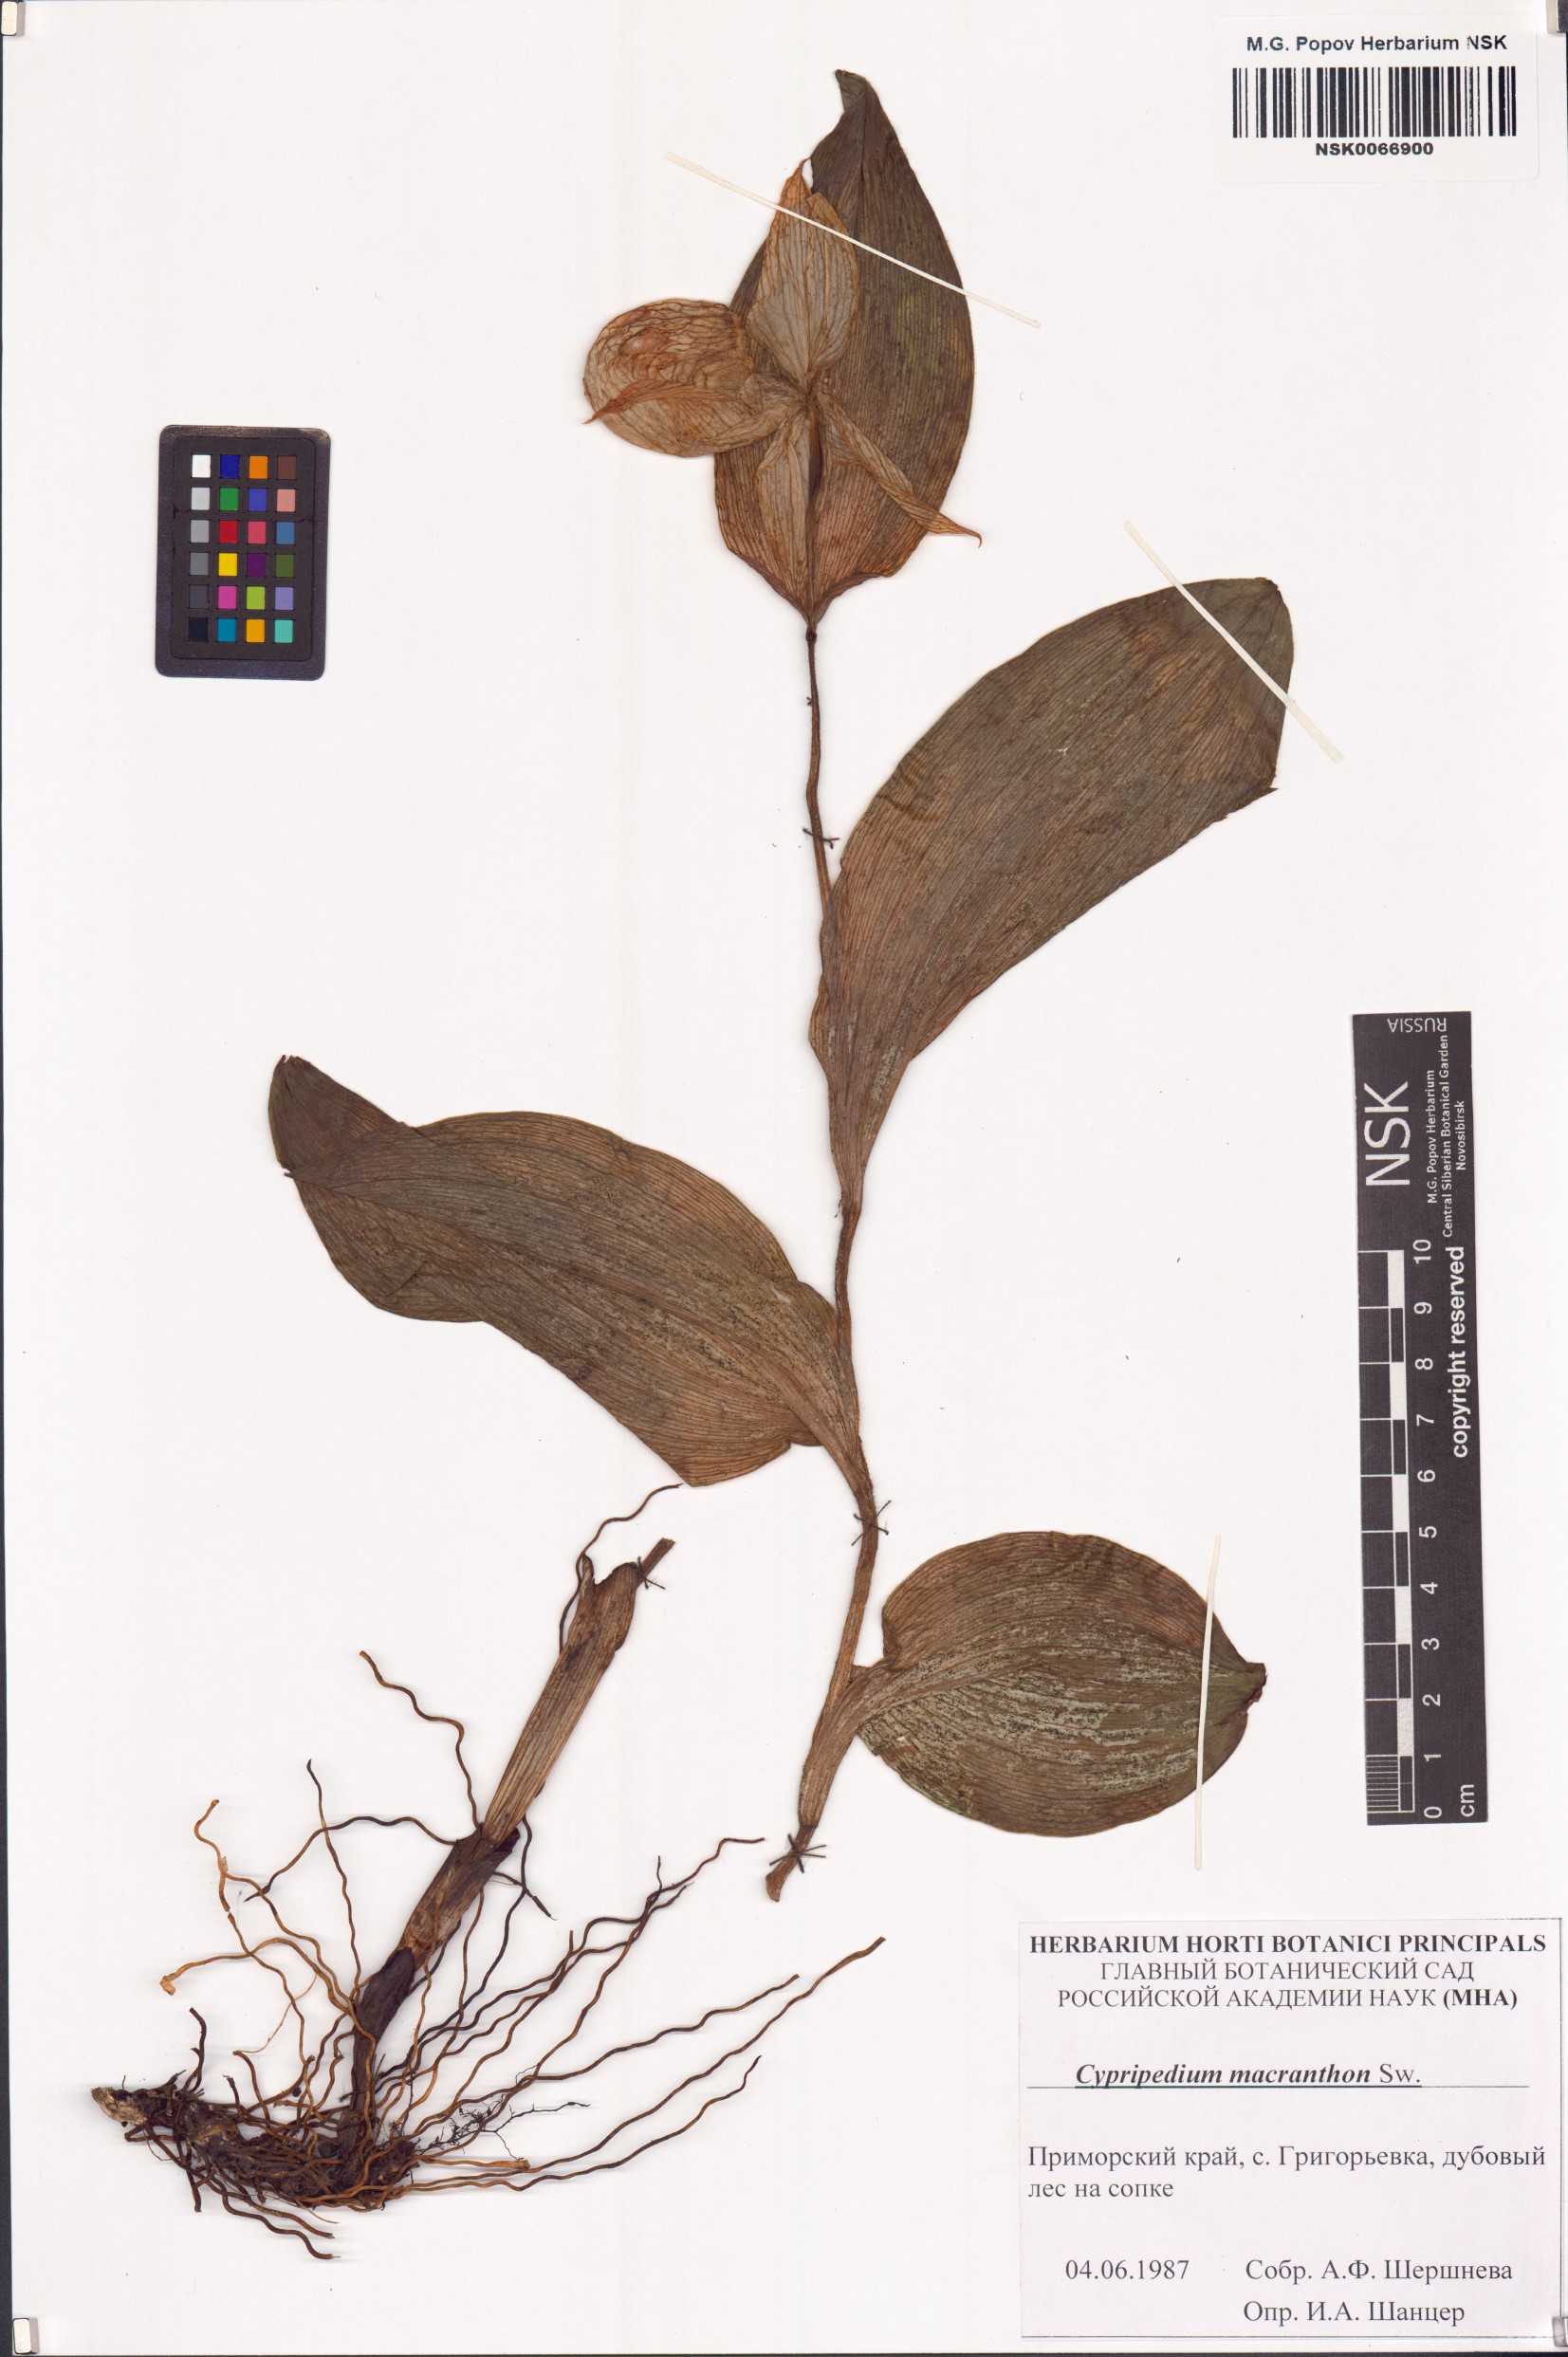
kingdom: Plantae
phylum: Tracheophyta
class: Liliopsida
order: Asparagales
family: Orchidaceae
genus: Cypripedium
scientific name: Cypripedium macranthon
